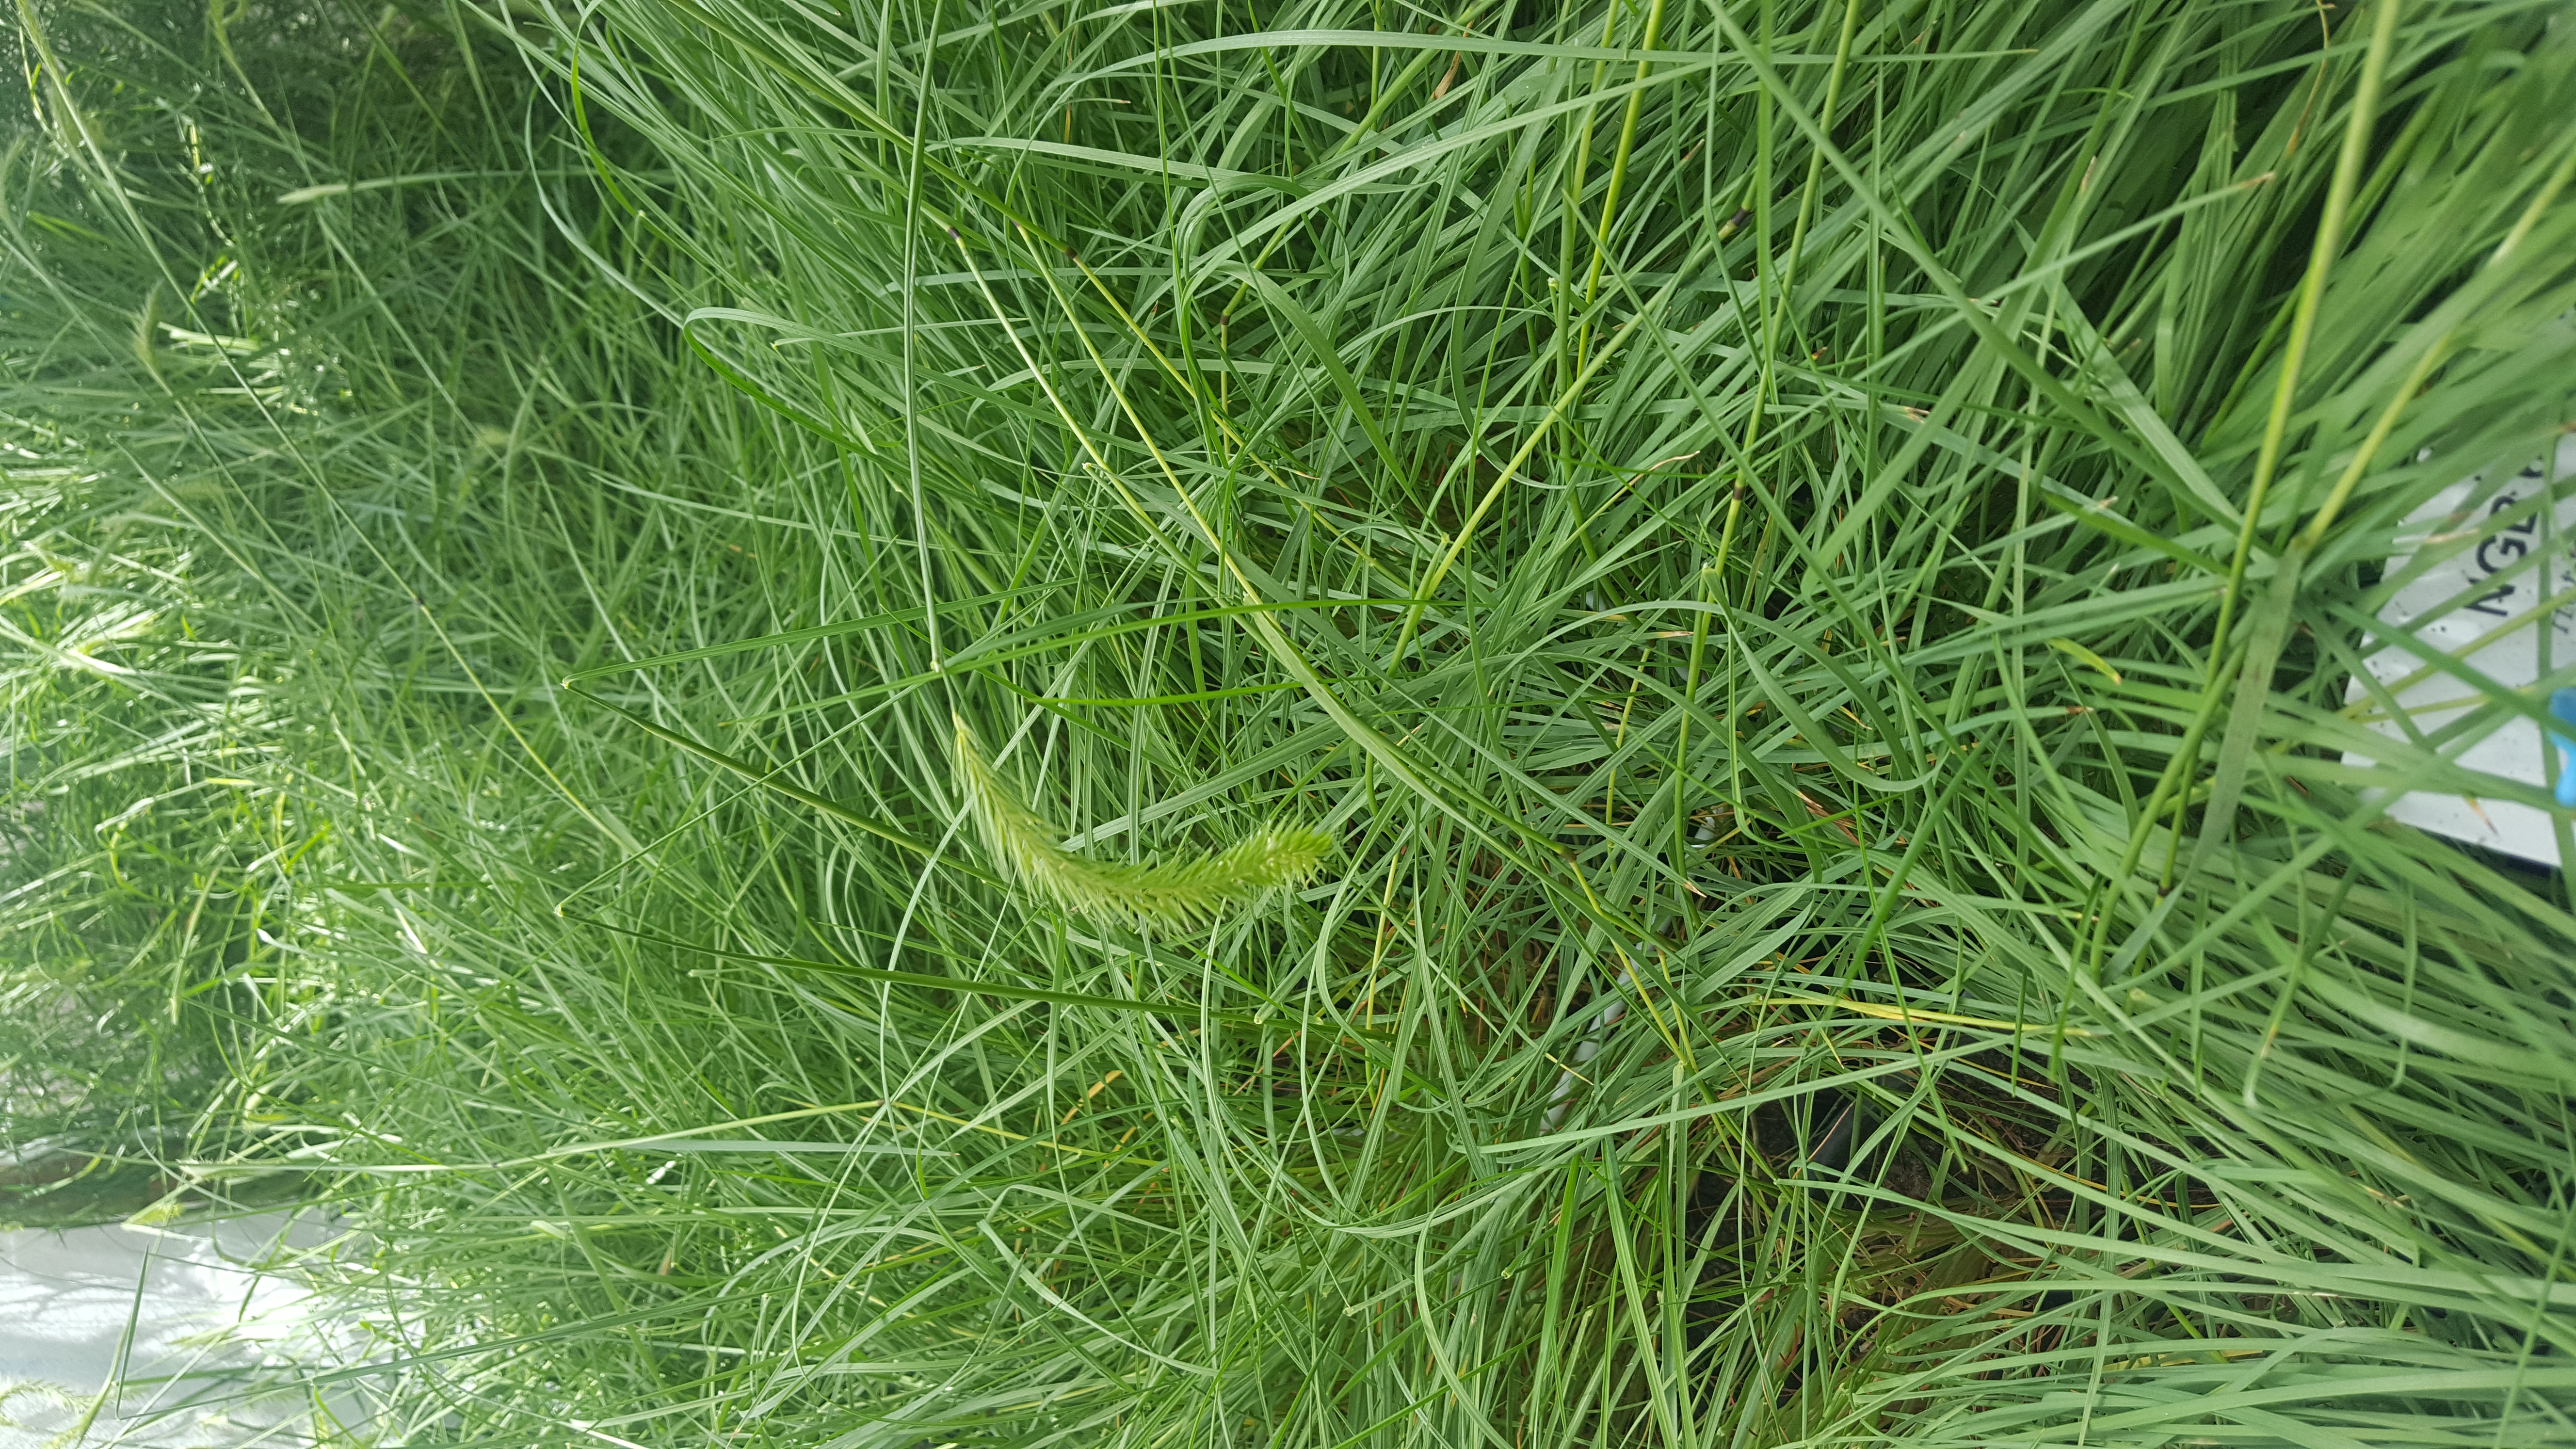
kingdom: Plantae
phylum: Tracheophyta
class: Liliopsida
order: Poales
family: Poaceae
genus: Hordeum
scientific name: Hordeum patagonicum
